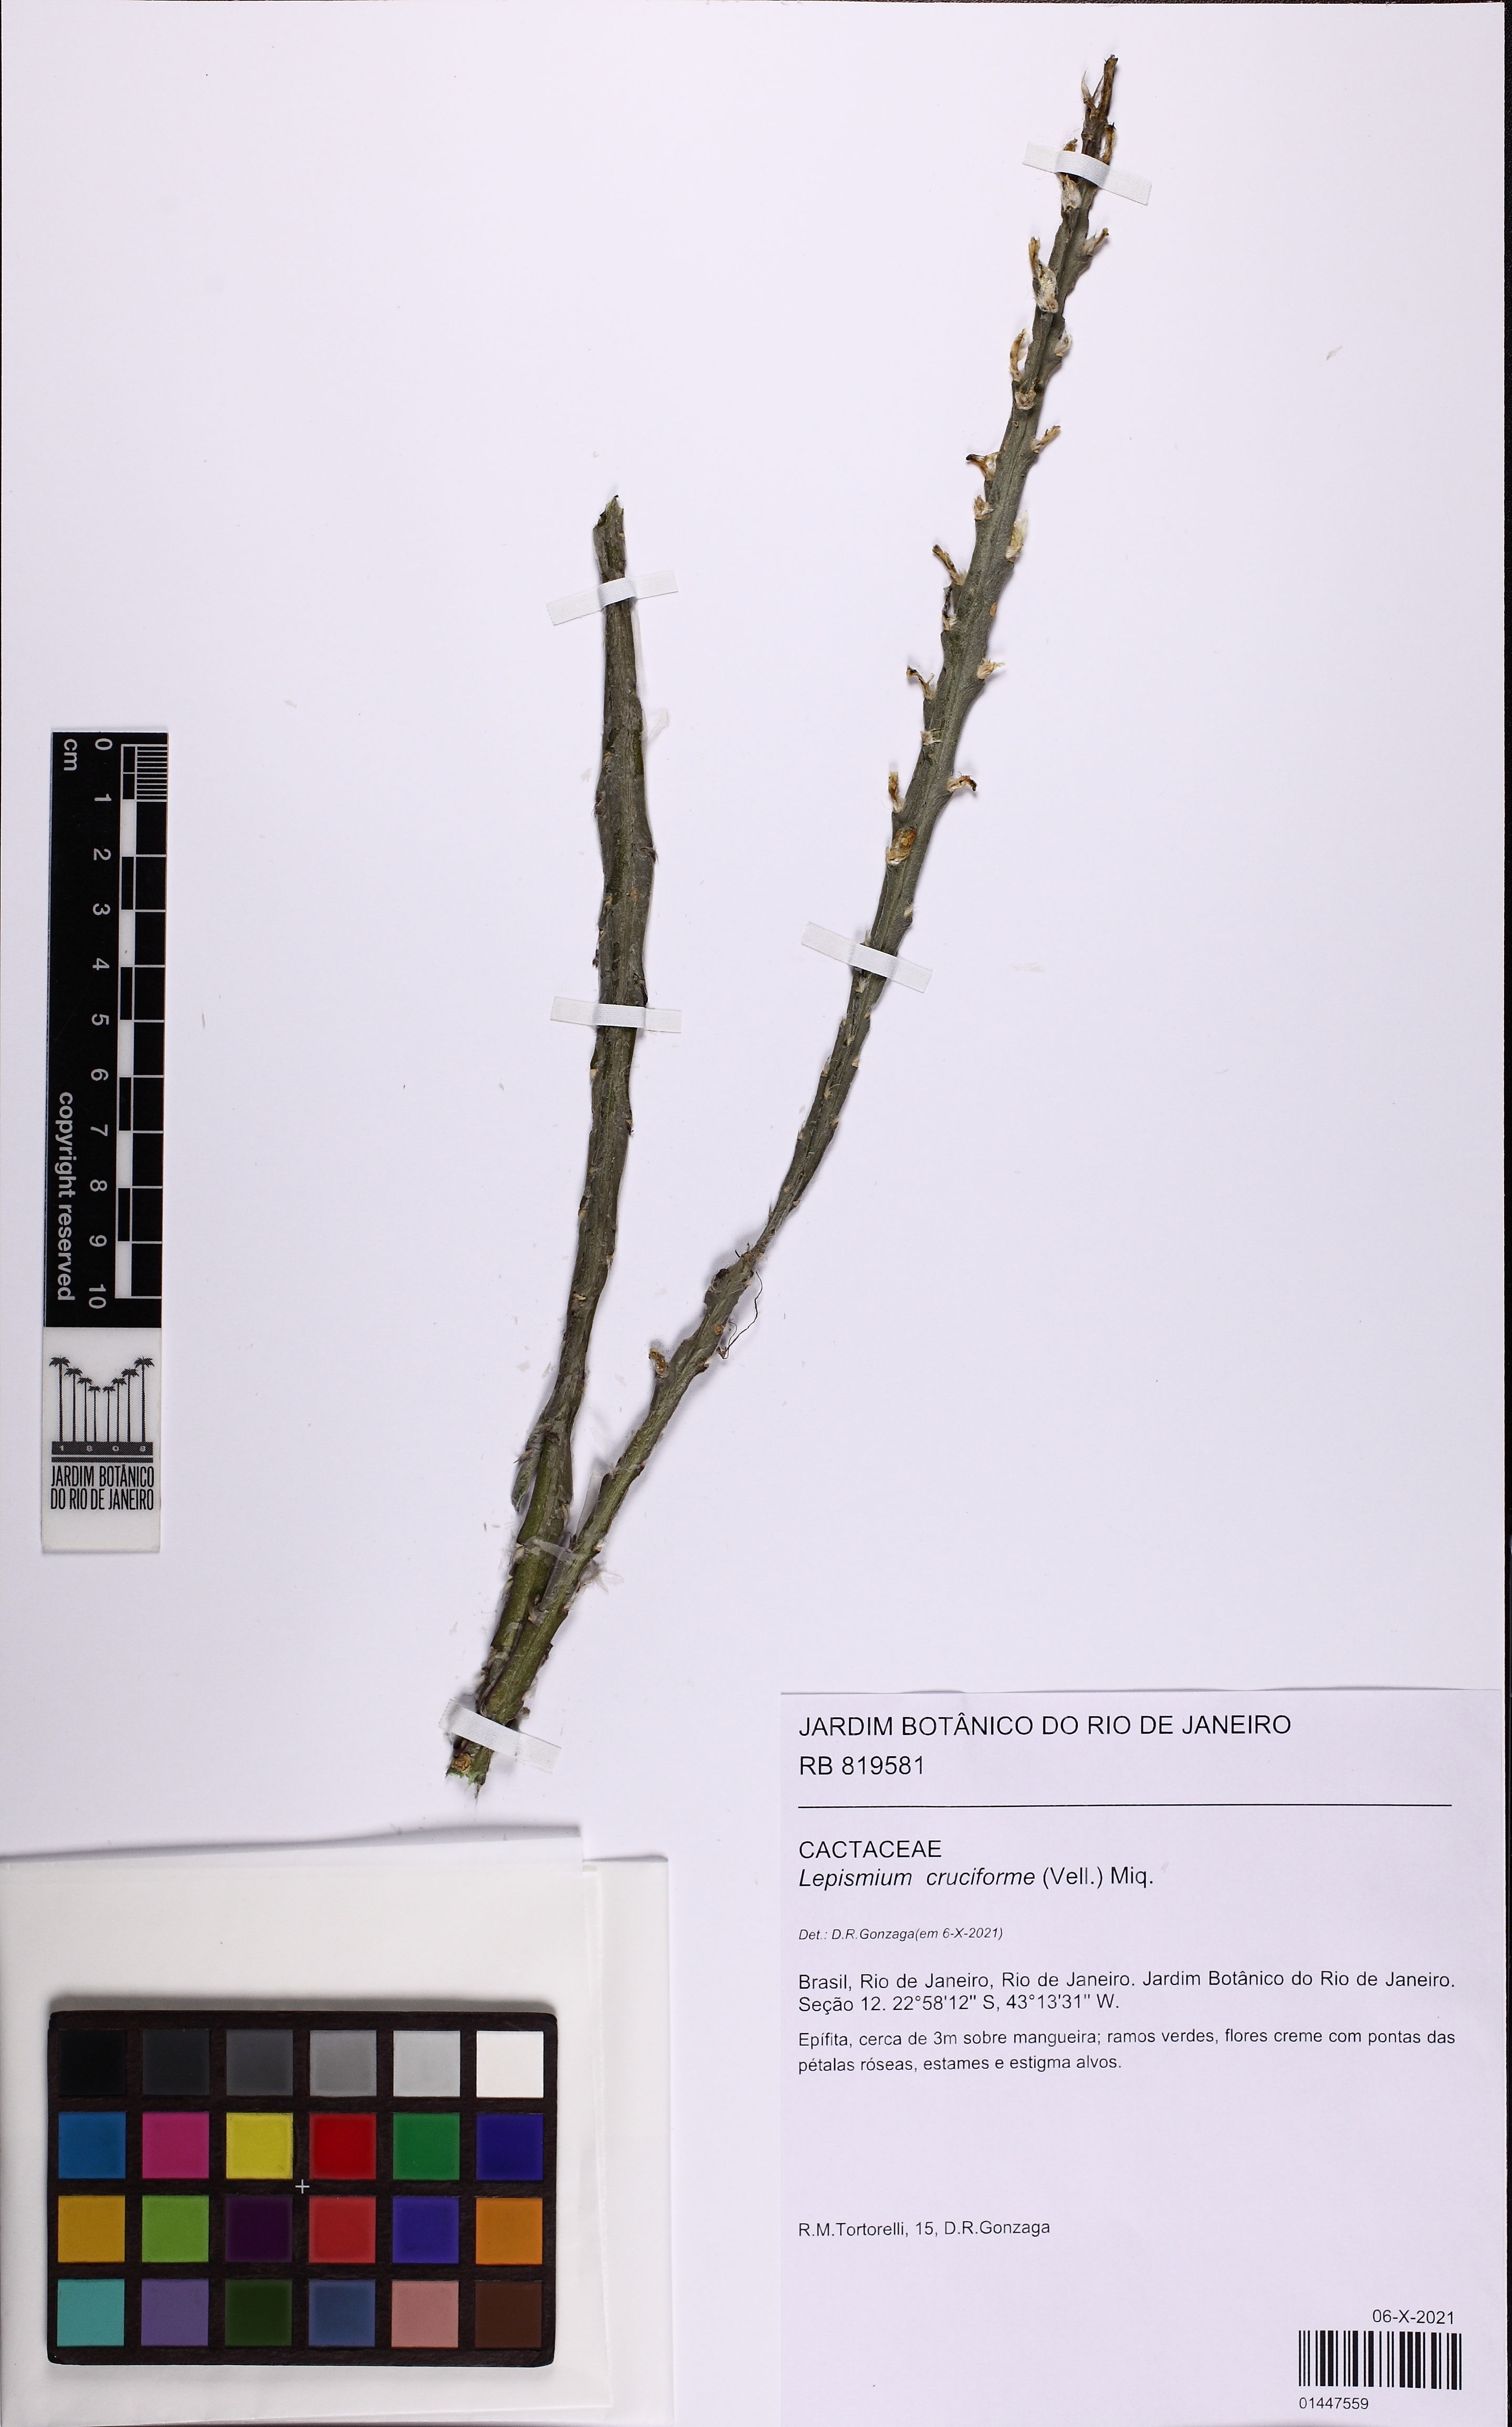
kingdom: Plantae
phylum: Tracheophyta
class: Magnoliopsida
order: Caryophyllales
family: Cactaceae
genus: Lepismium
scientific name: Lepismium cruciforme
